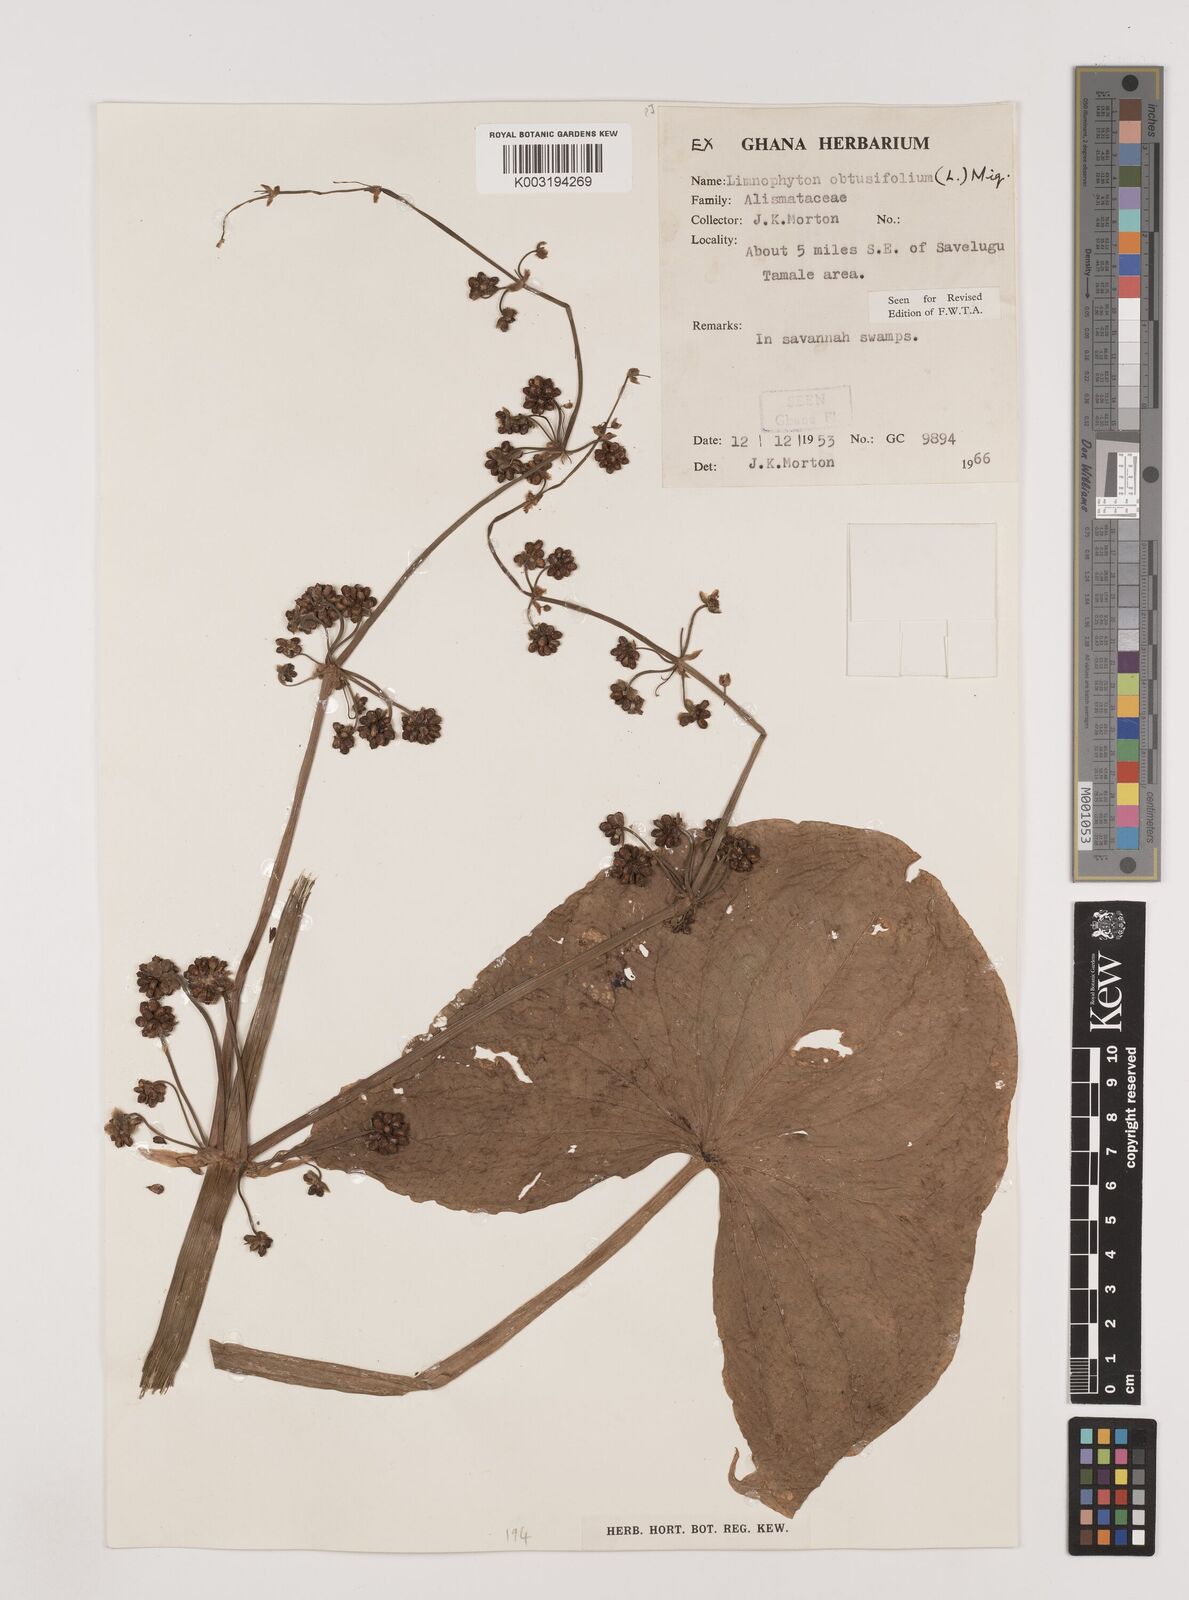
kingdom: Plantae
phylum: Tracheophyta
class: Liliopsida
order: Alismatales
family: Alismataceae
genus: Limnophyton
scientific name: Limnophyton obtusifolium
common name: Arrow head
